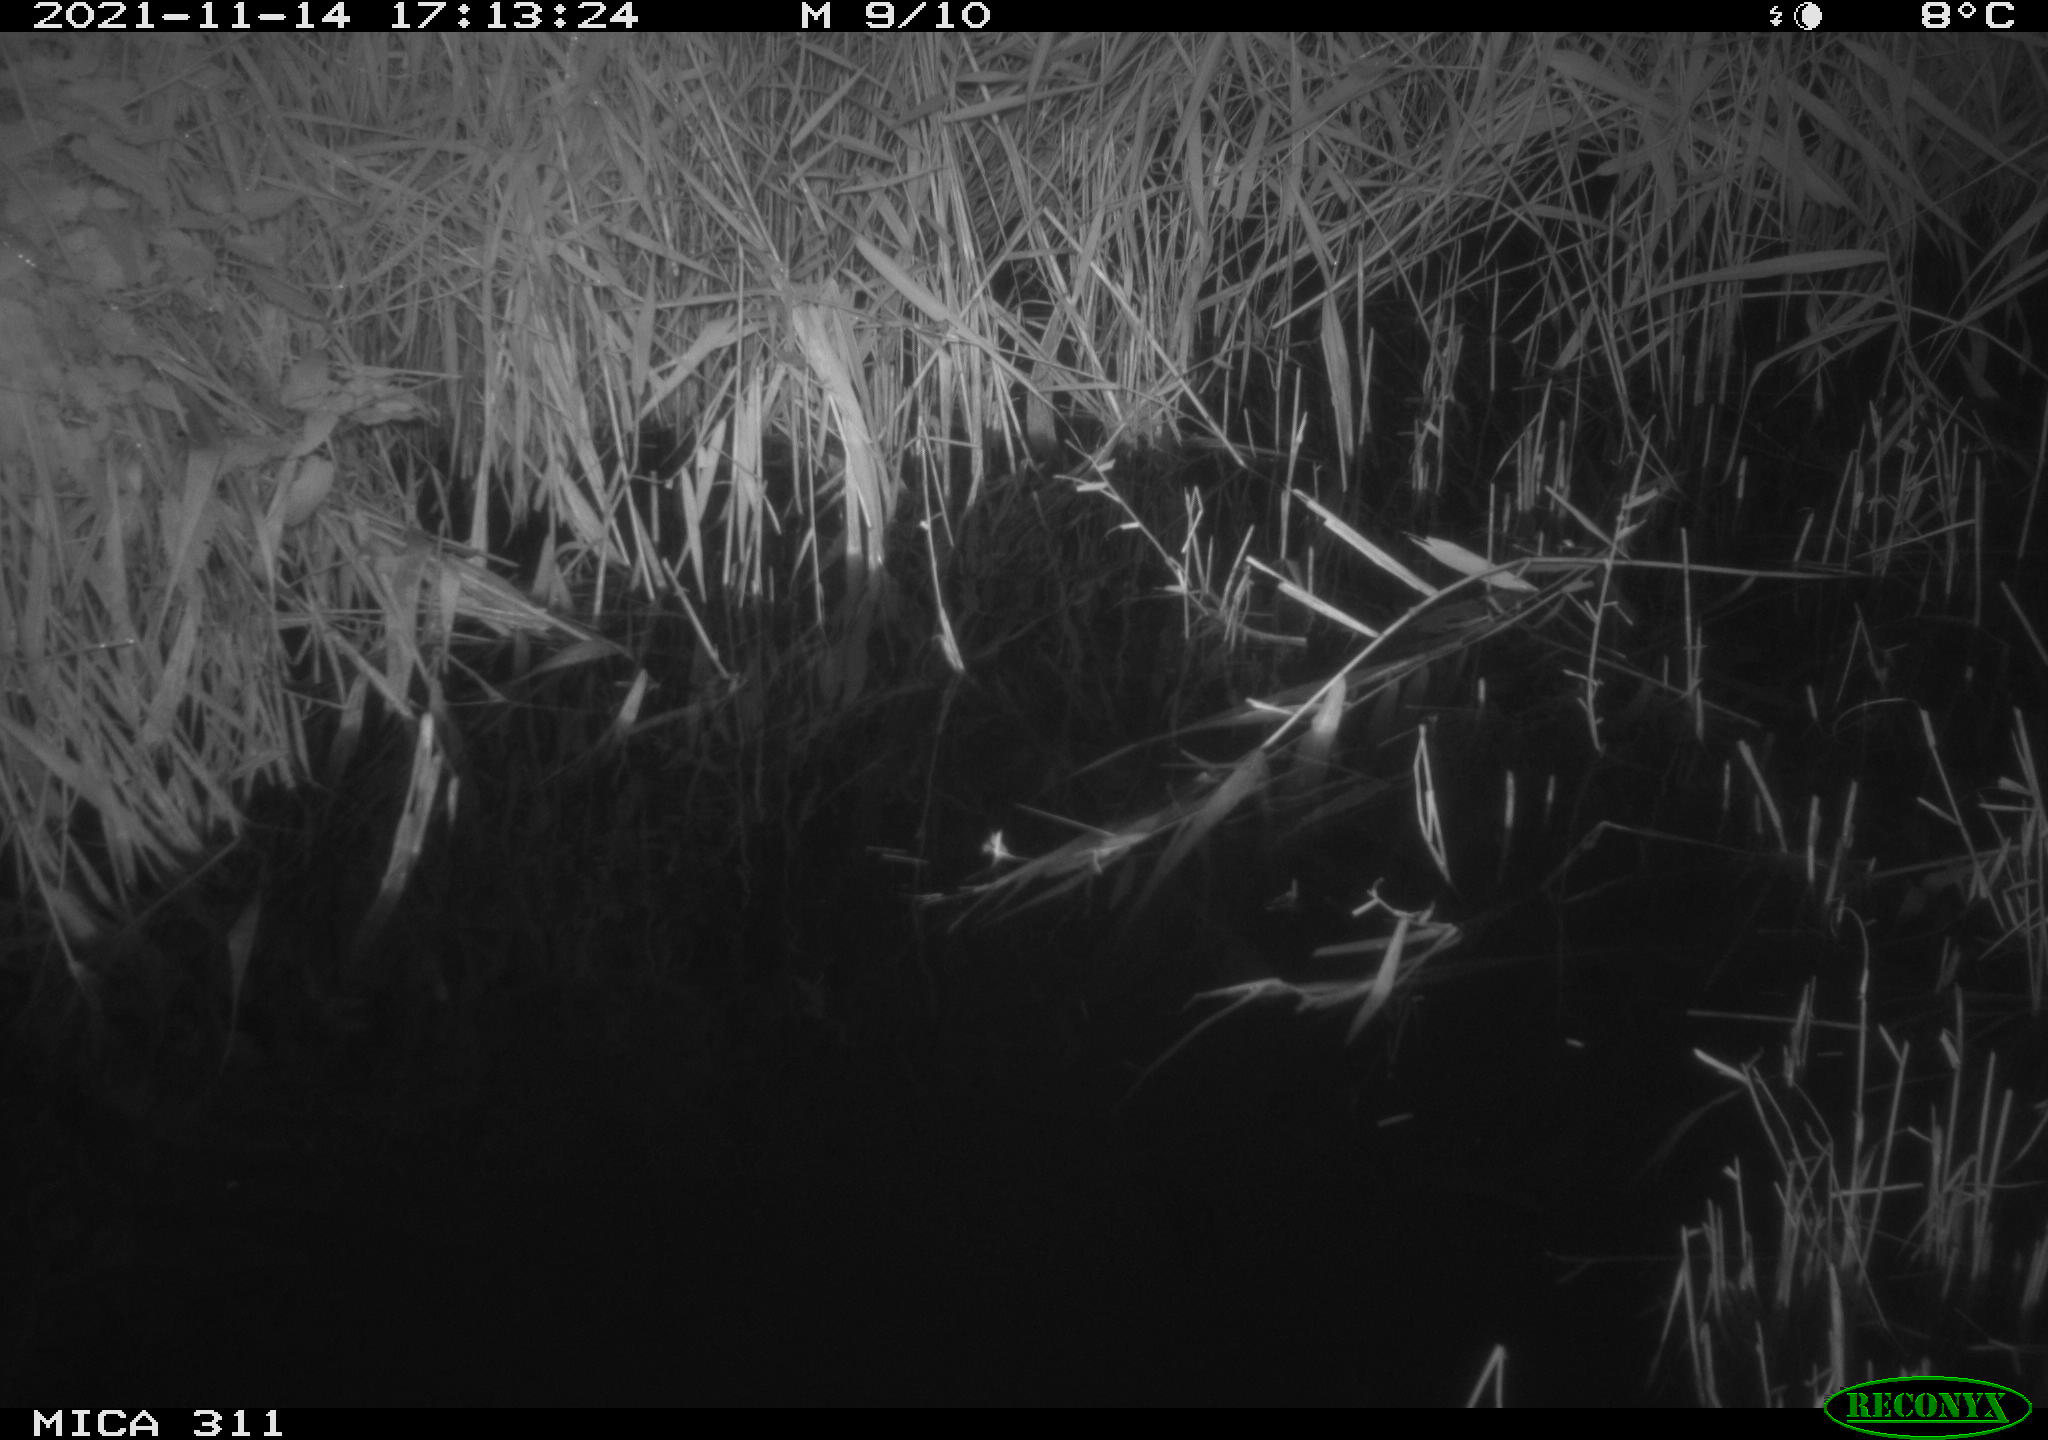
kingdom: Animalia
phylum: Chordata
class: Mammalia
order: Rodentia
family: Muridae
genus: Rattus
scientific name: Rattus norvegicus
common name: Brown rat
